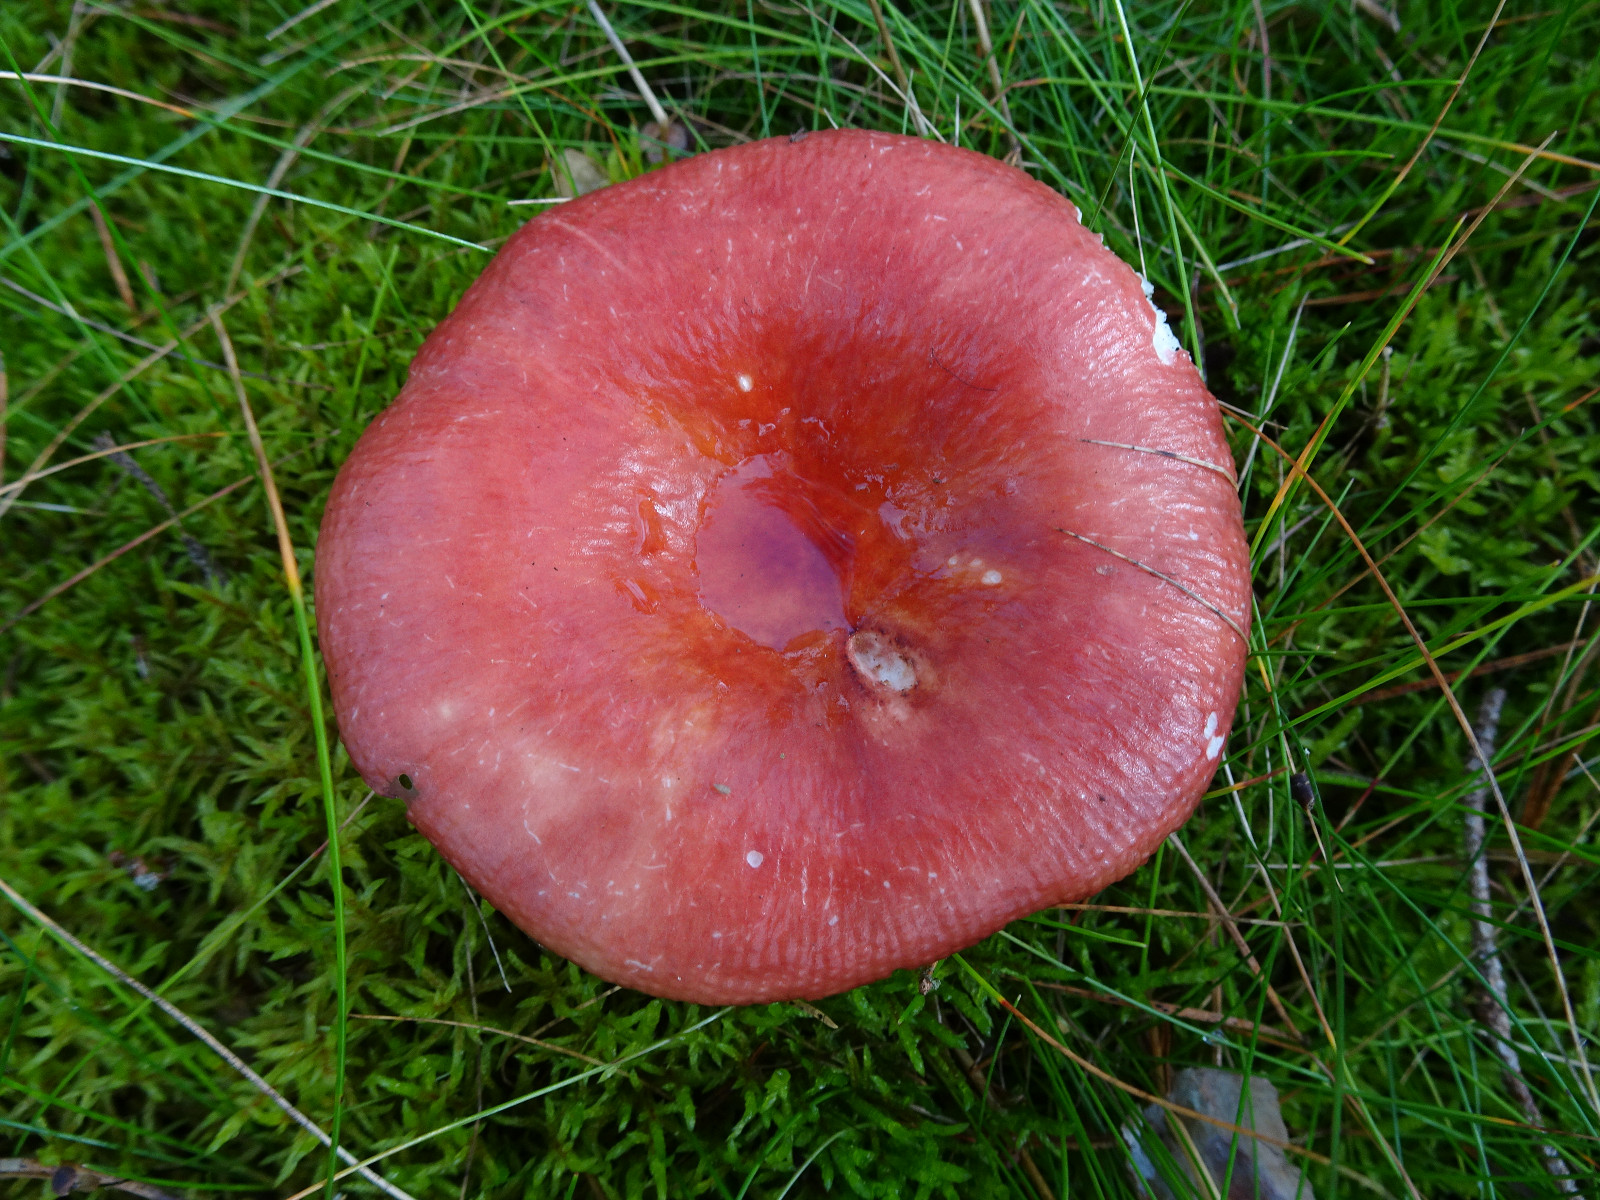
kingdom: Fungi
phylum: Basidiomycota
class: Agaricomycetes
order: Russulales
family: Russulaceae
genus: Russula
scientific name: Russula paludosa
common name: prægtig skørhat
